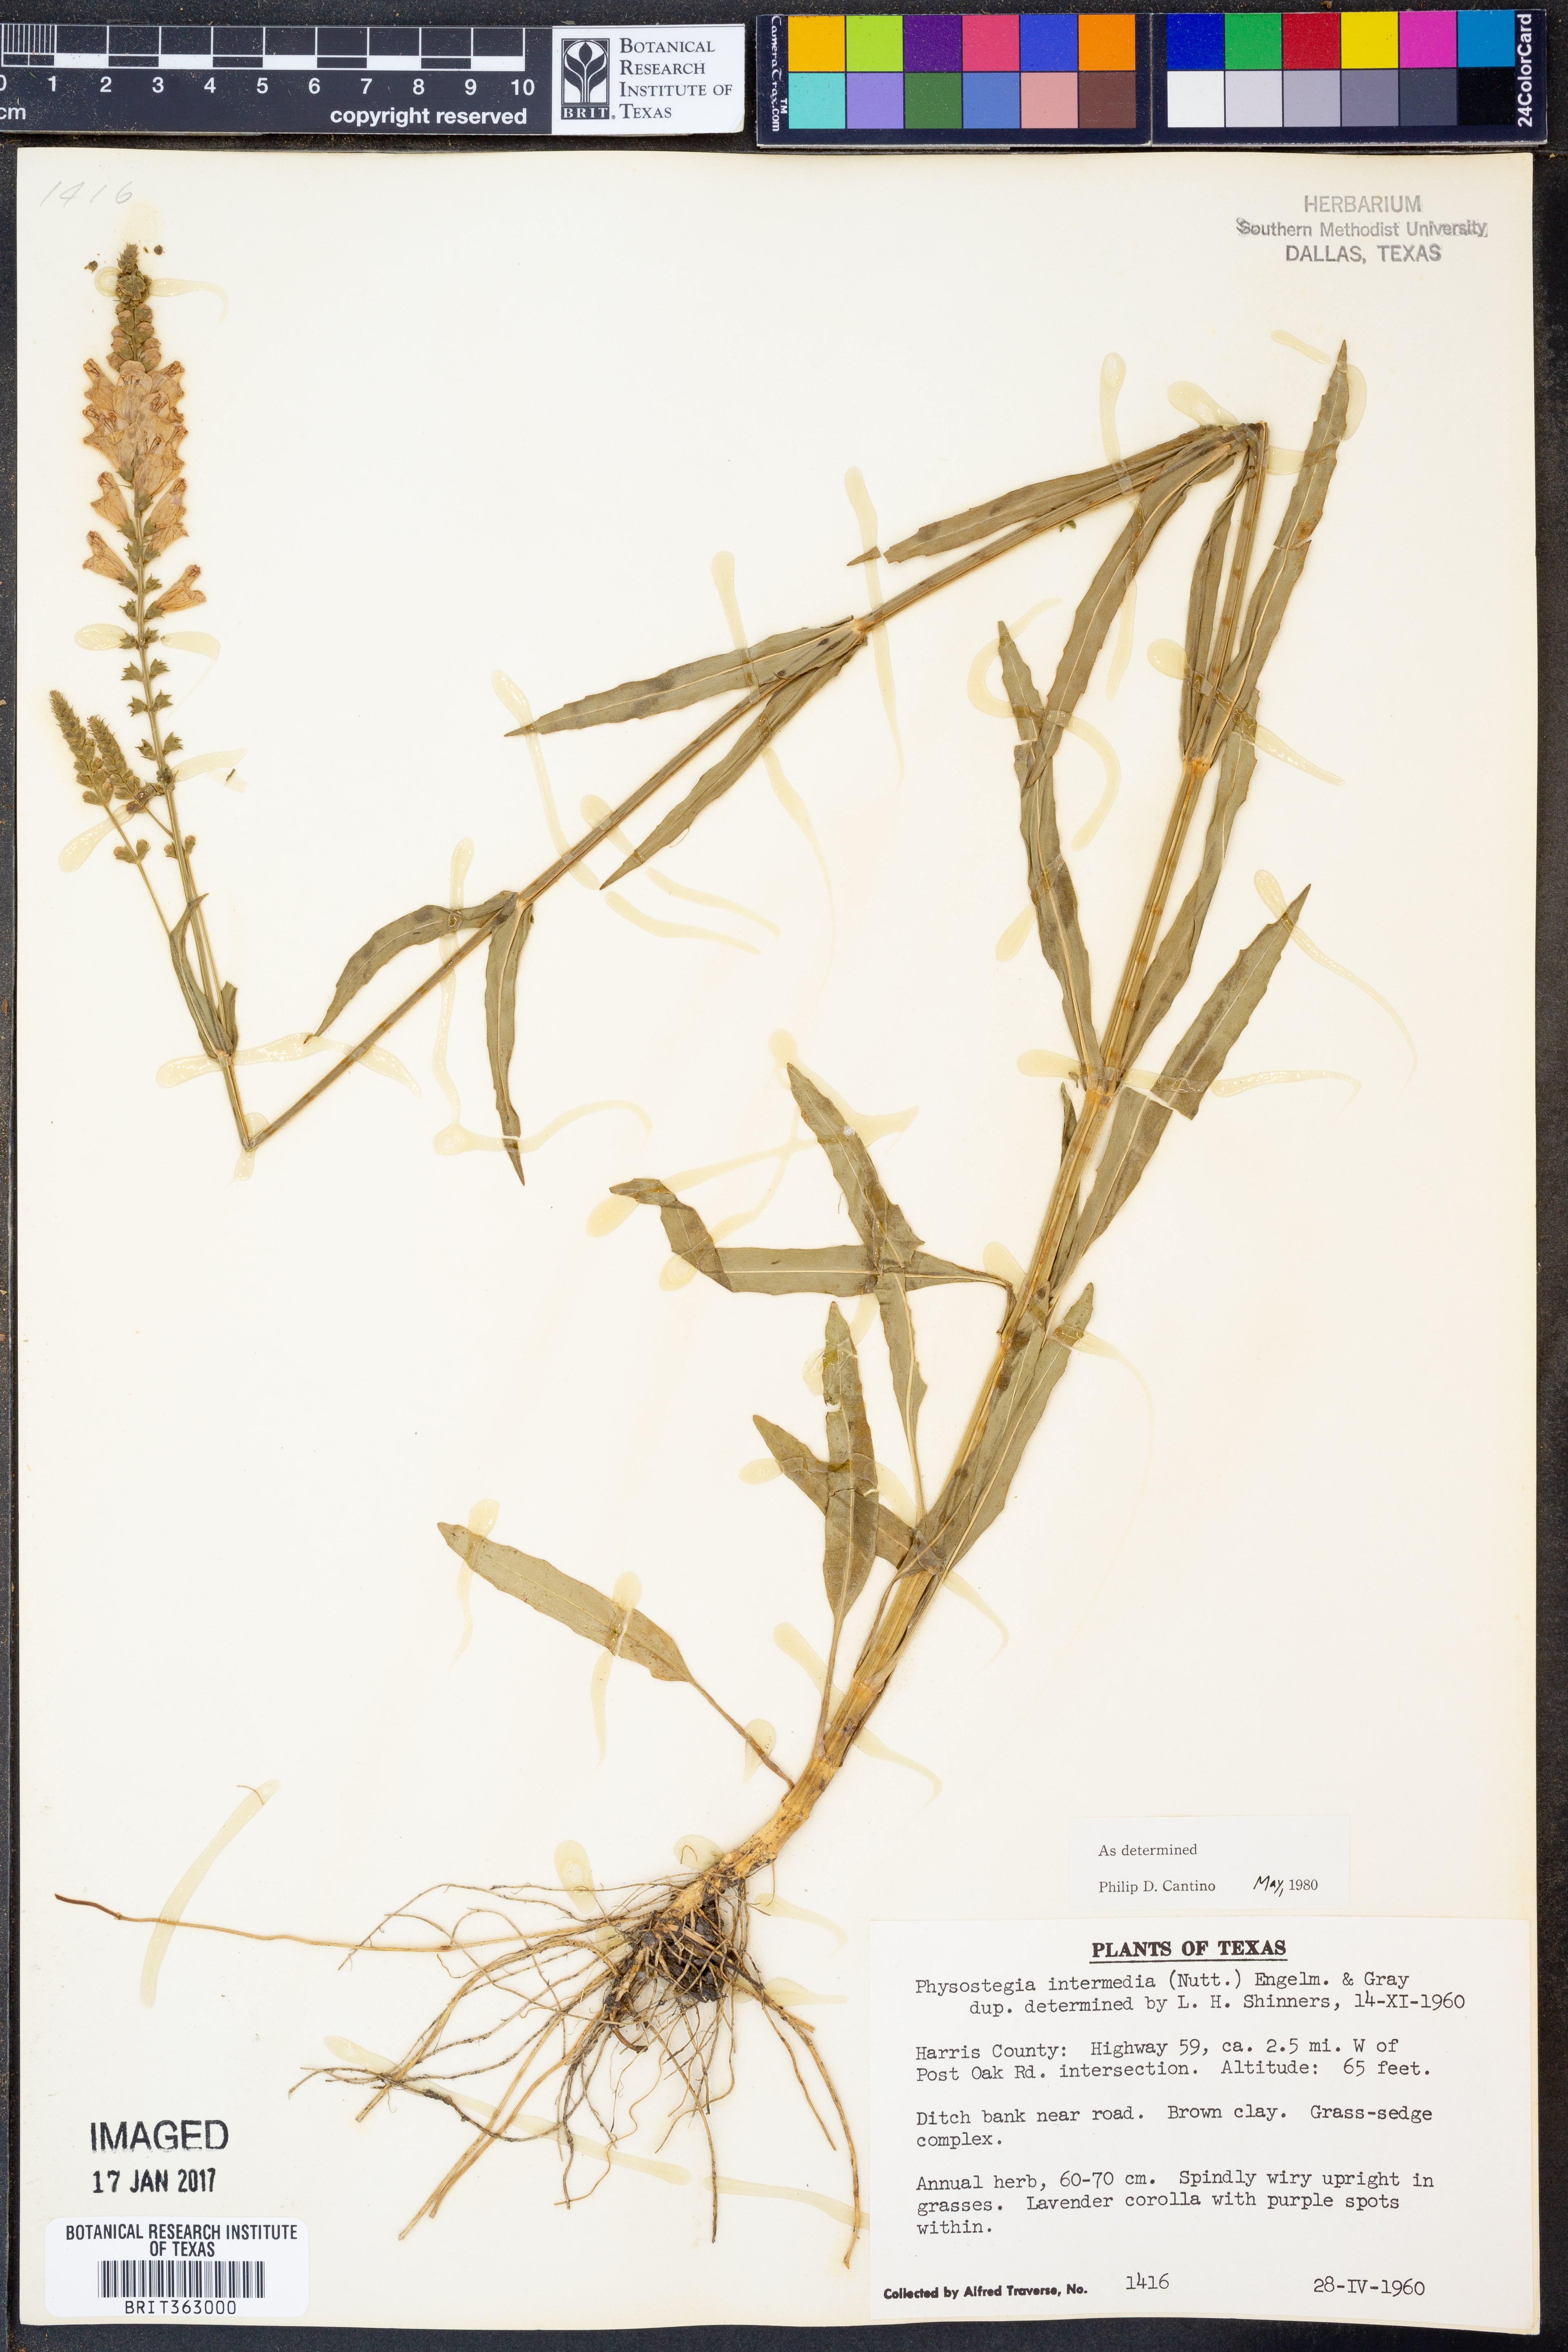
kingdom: Plantae
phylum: Tracheophyta
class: Magnoliopsida
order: Lamiales
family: Lamiaceae
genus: Physostegia
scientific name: Physostegia intermedia
